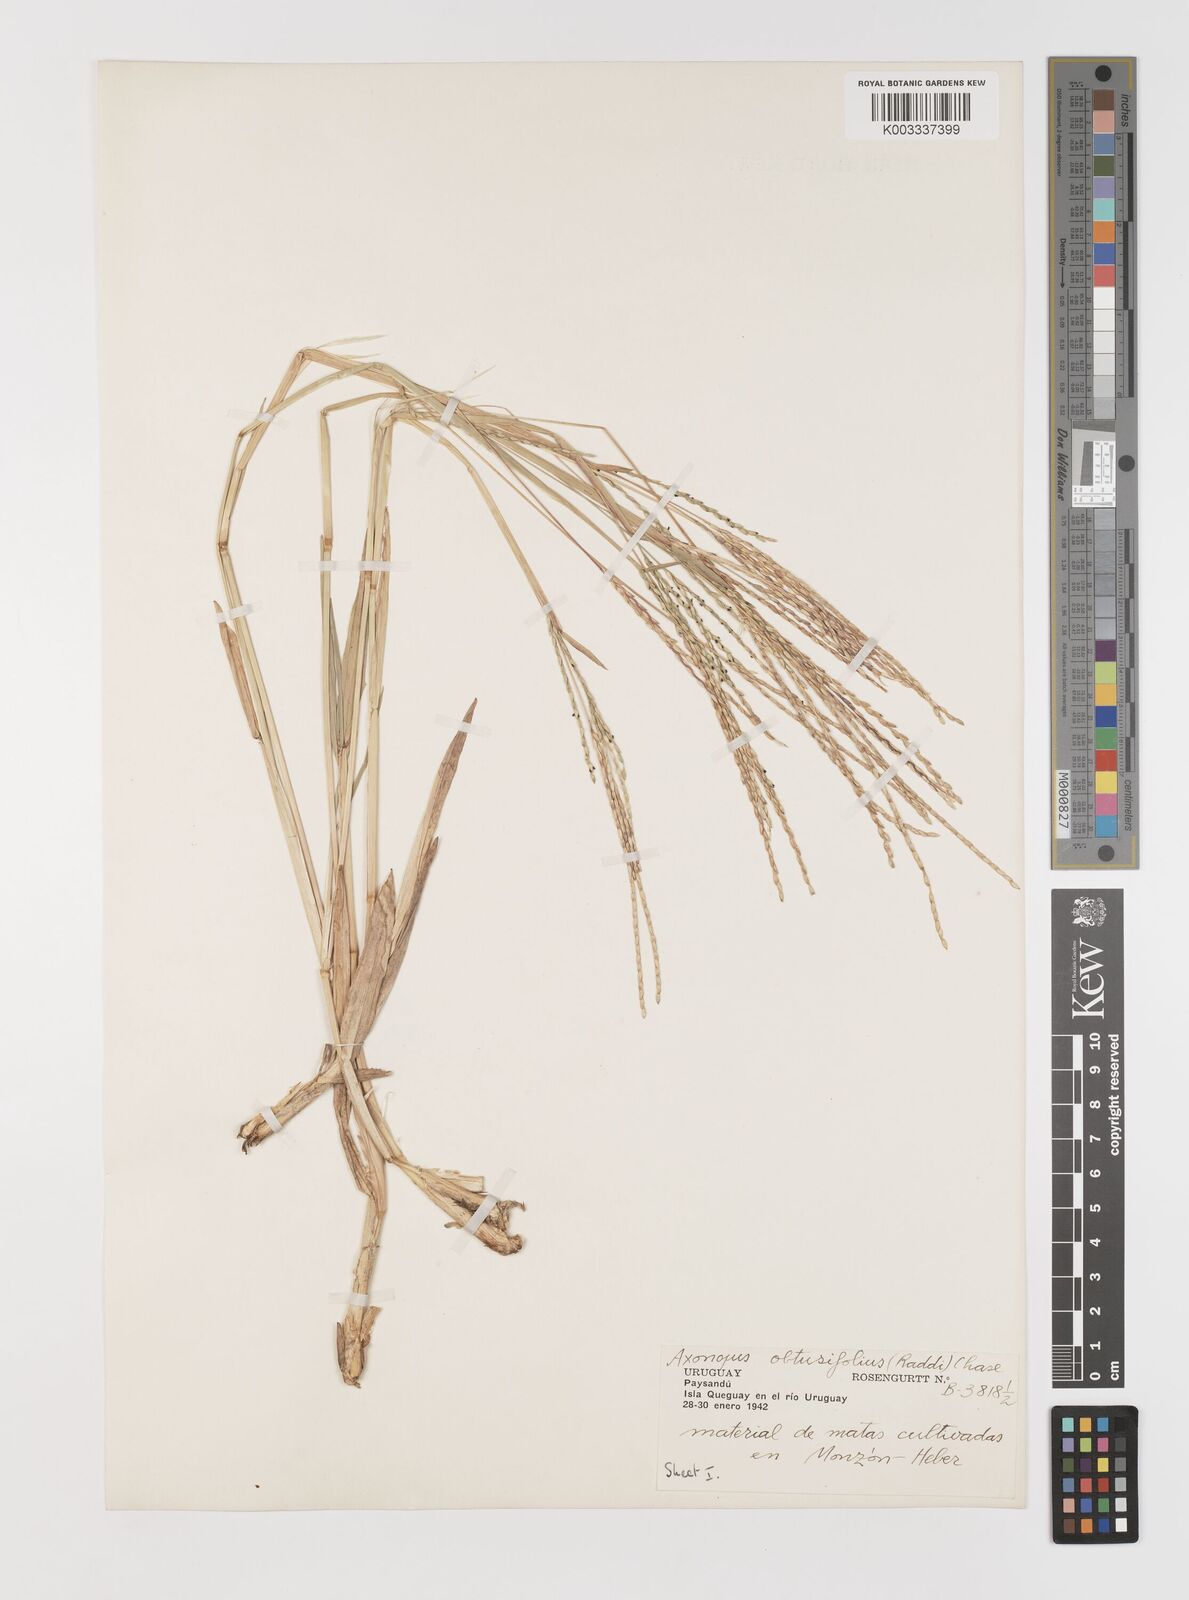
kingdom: Plantae
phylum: Tracheophyta
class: Liliopsida
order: Poales
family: Poaceae
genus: Axonopus
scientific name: Axonopus furcatus
